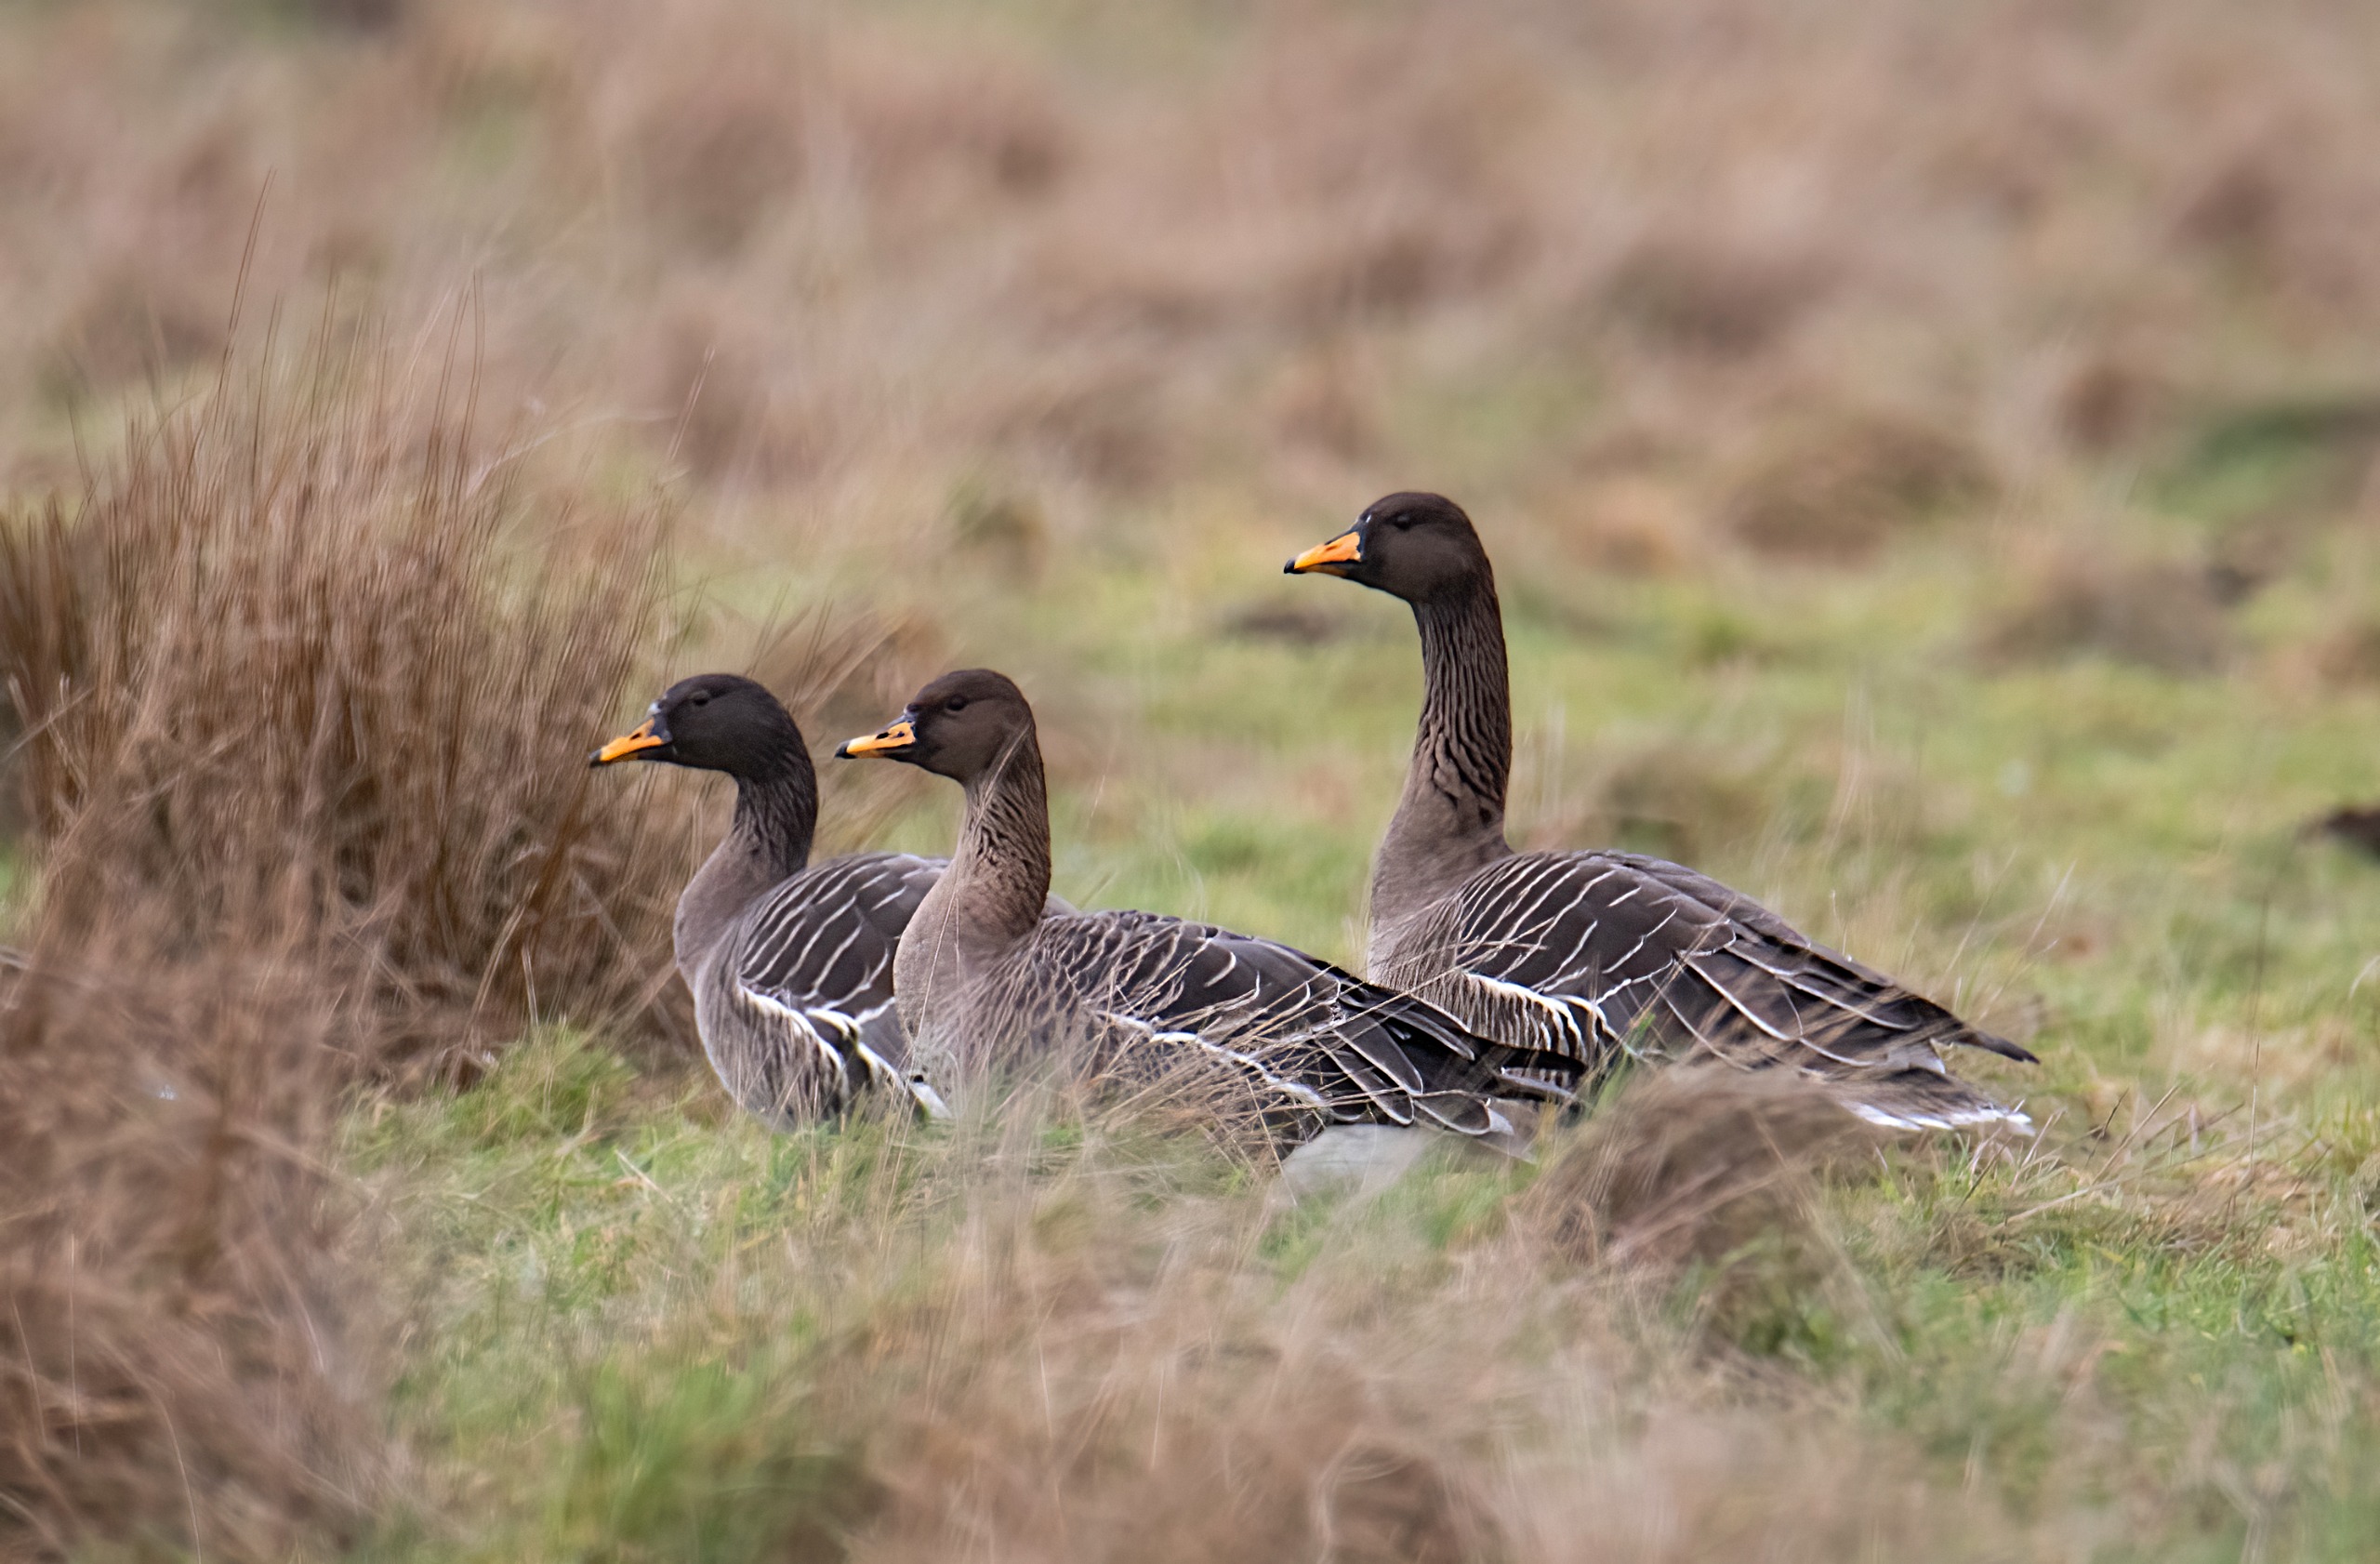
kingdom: Animalia
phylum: Chordata
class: Aves
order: Anseriformes
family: Anatidae
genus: Anser
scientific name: Anser fabalis
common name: Tajgasædgås
